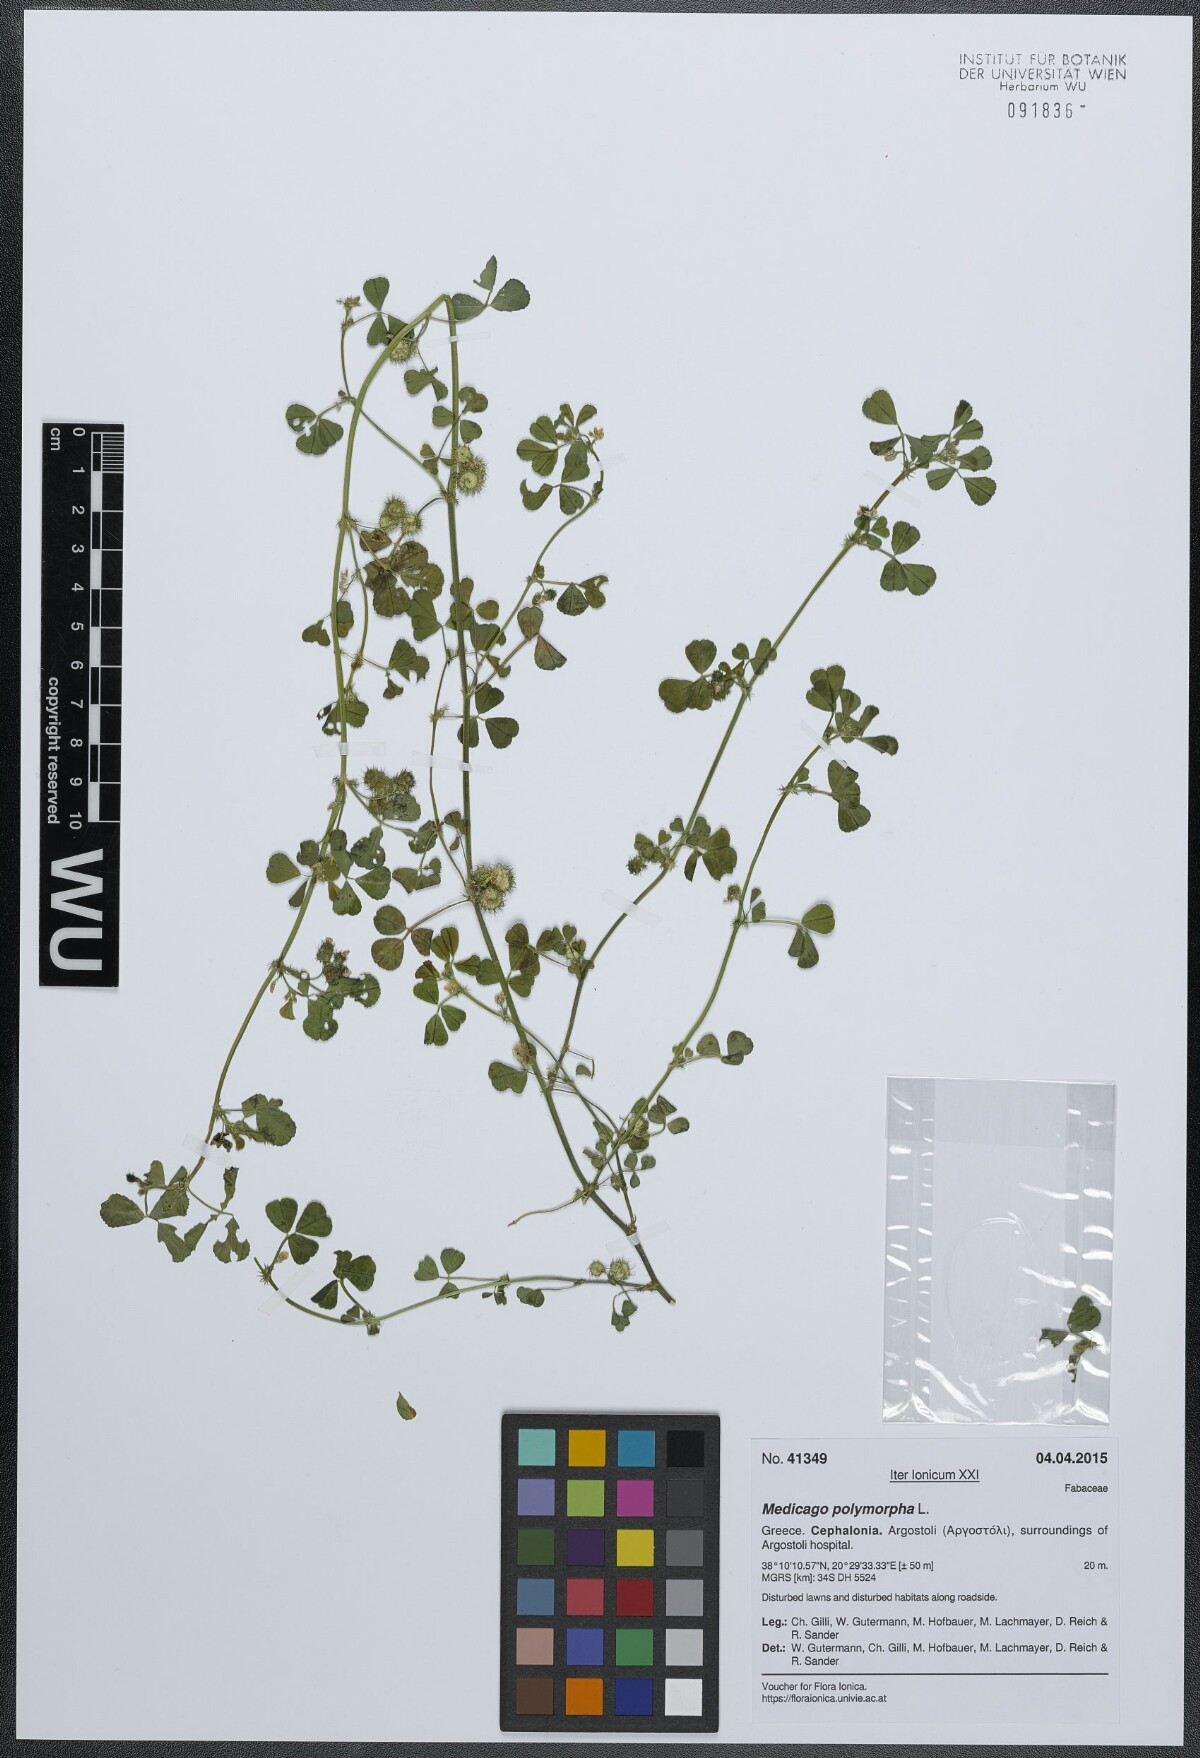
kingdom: Plantae
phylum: Tracheophyta
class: Magnoliopsida
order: Fabales
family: Fabaceae
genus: Medicago
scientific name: Medicago polymorpha
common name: Burclover
